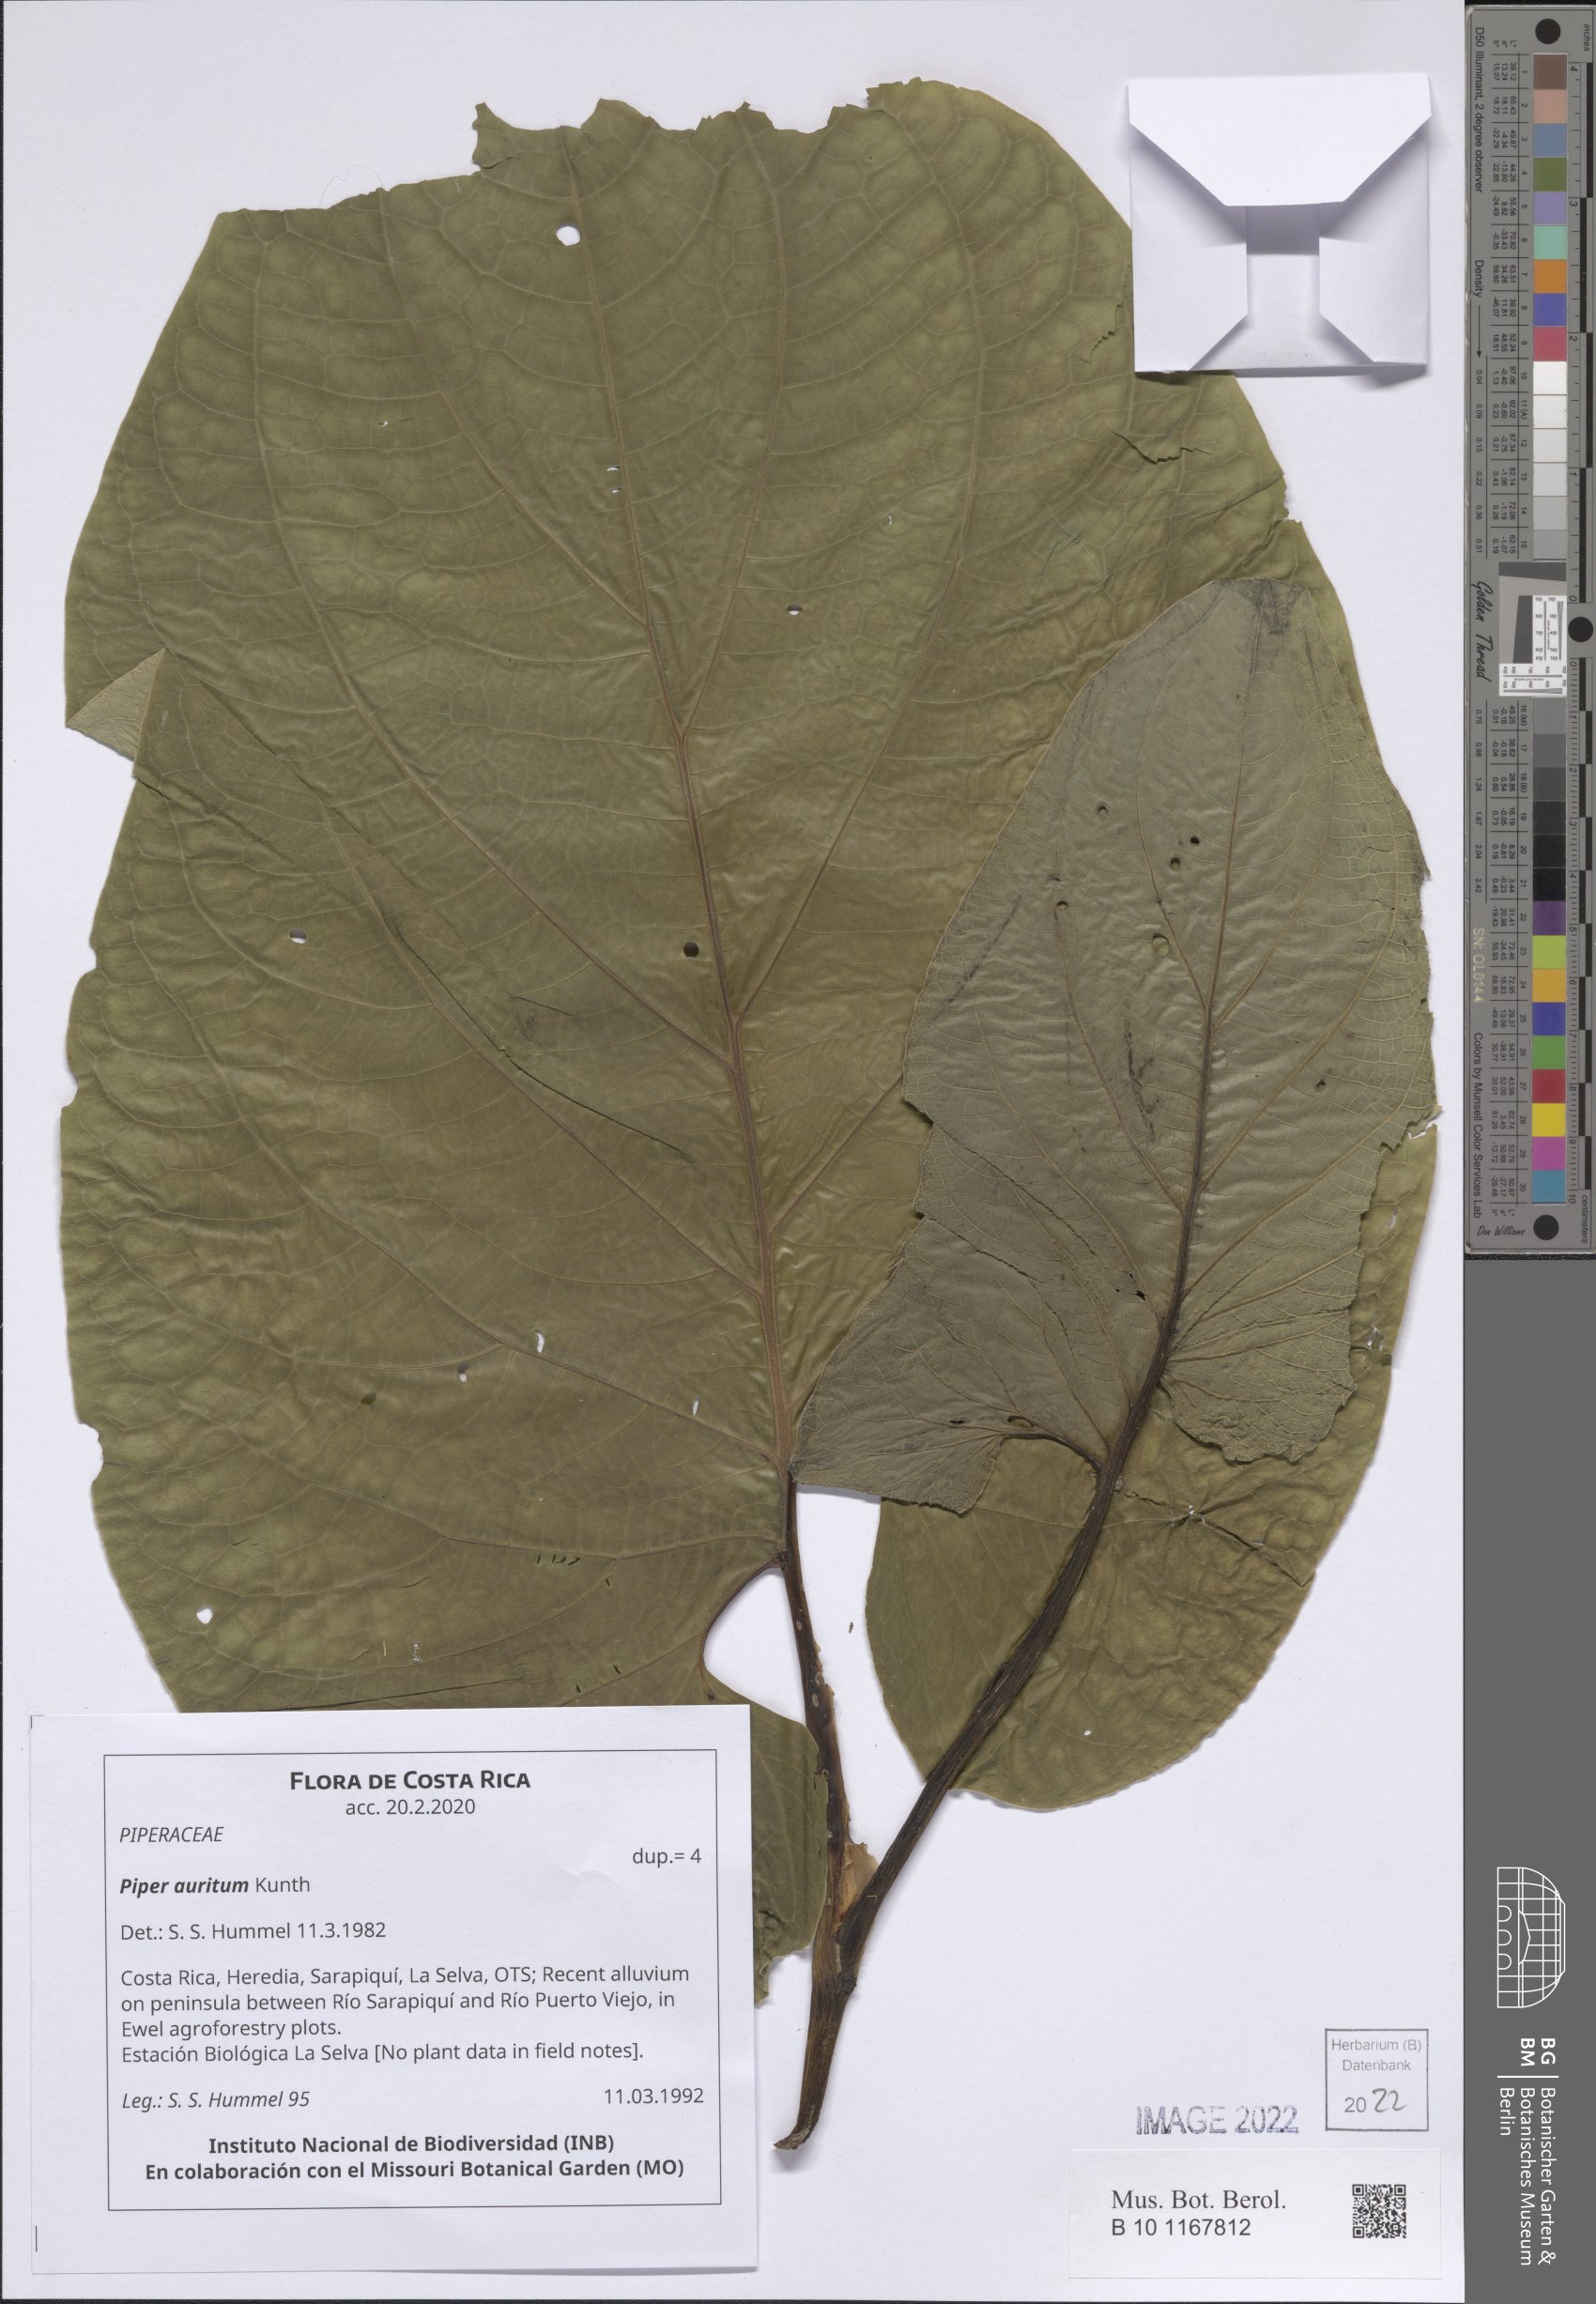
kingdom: Plantae
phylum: Tracheophyta
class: Magnoliopsida
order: Piperales
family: Piperaceae
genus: Piper
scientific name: Piper auritum
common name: Vera cruz pepper
